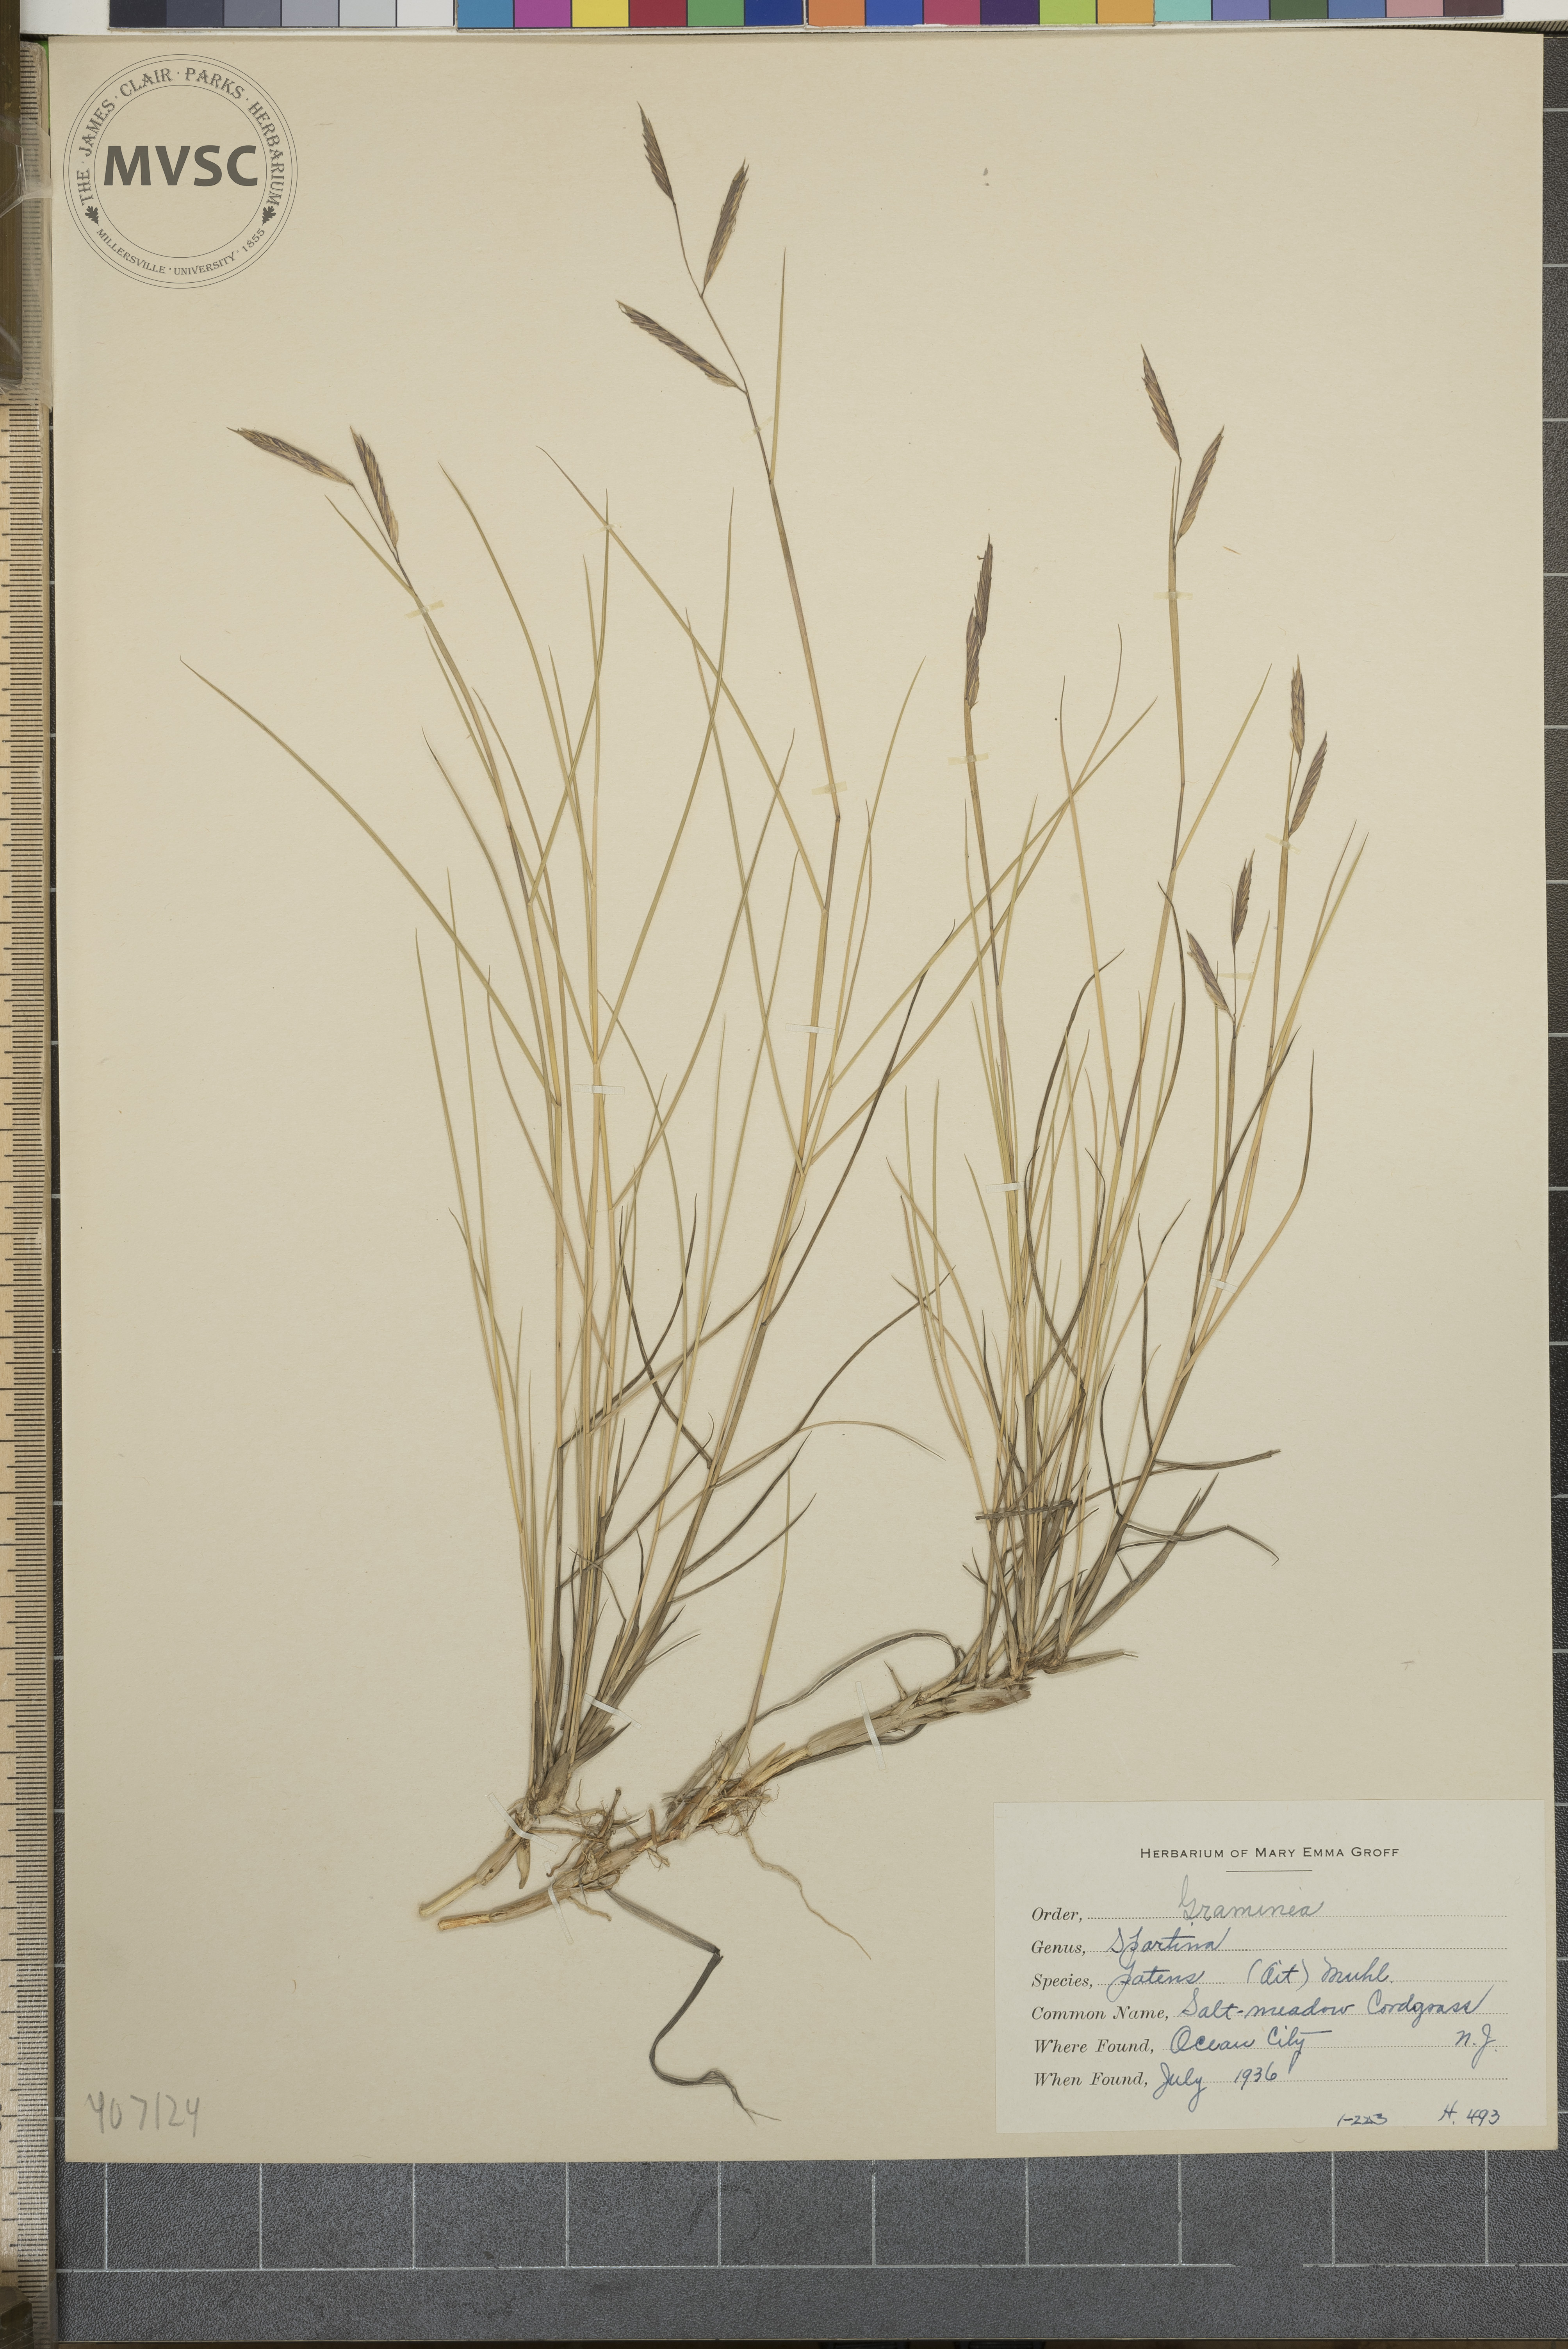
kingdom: Plantae
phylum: Tracheophyta
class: Liliopsida
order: Poales
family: Poaceae
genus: Sporobolus
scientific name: Sporobolus pumilus
